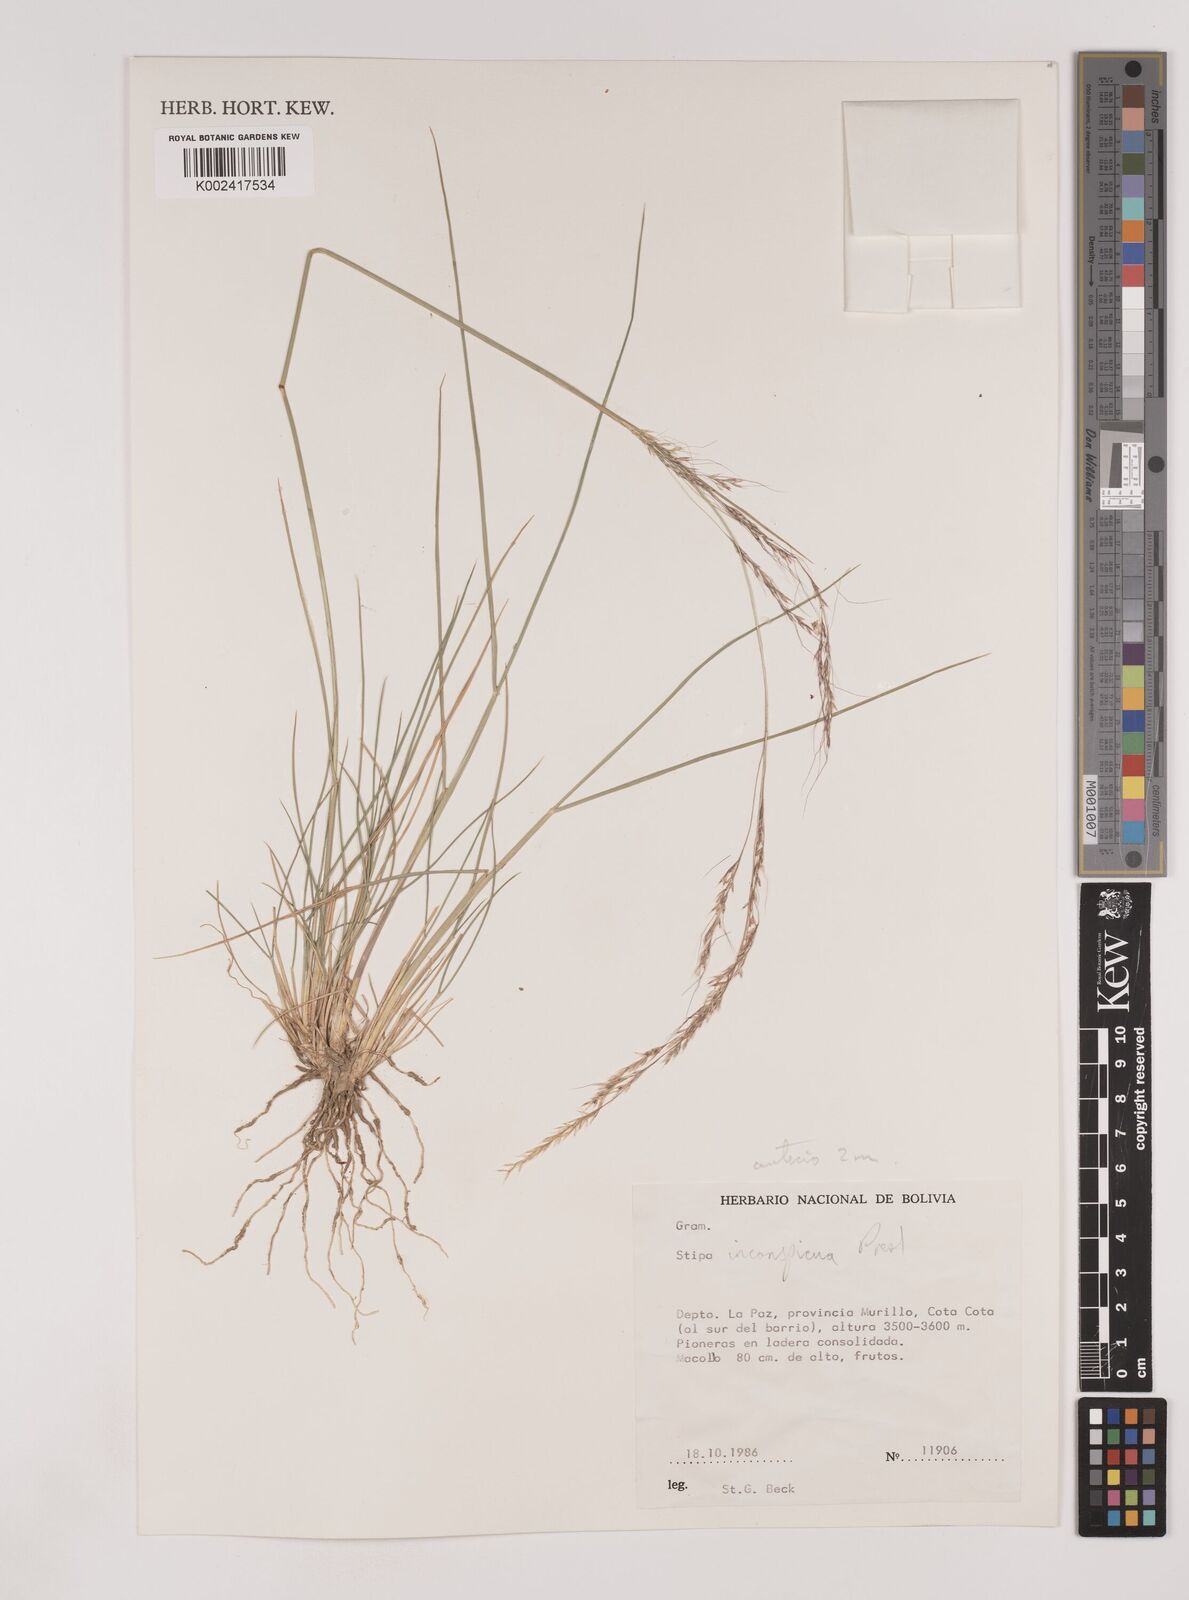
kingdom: Plantae
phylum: Tracheophyta
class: Liliopsida
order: Poales
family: Poaceae
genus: Nassella
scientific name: Nassella pubiflora
